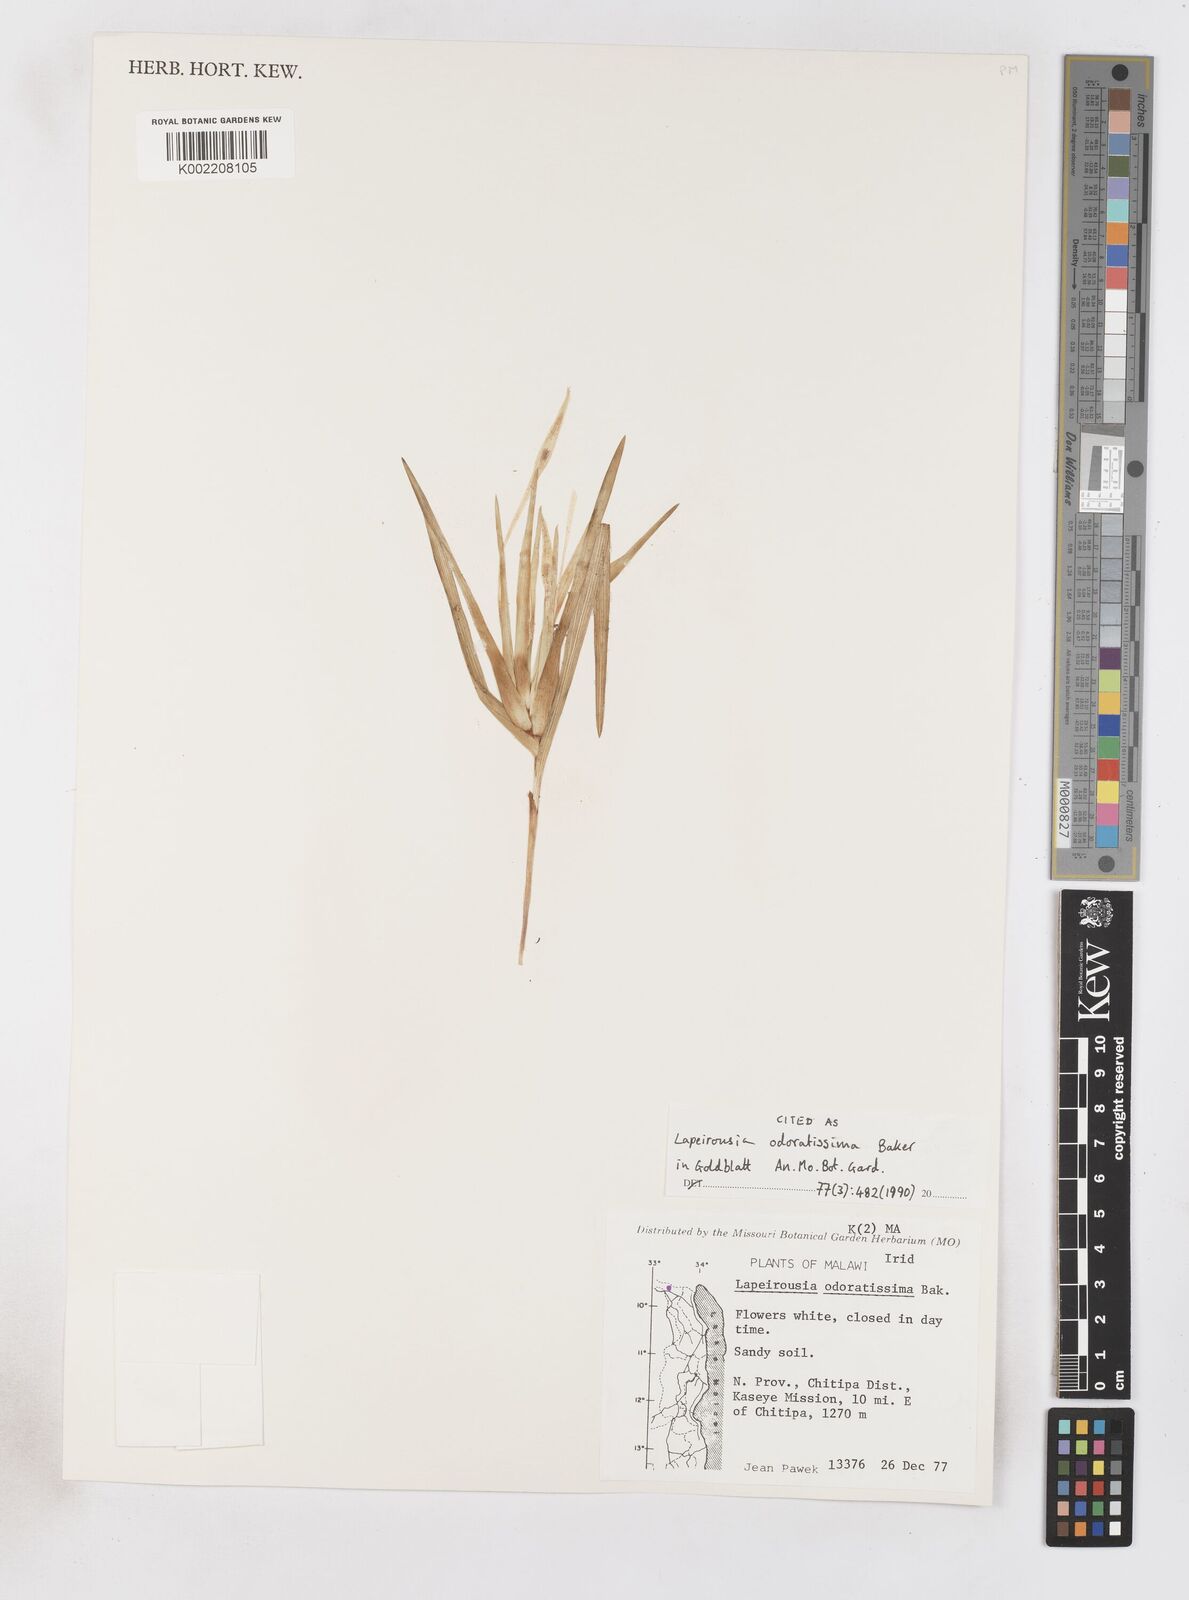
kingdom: Plantae
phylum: Tracheophyta
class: Liliopsida
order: Asparagales
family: Iridaceae
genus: Lapeirousia
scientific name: Lapeirousia odoratissima
